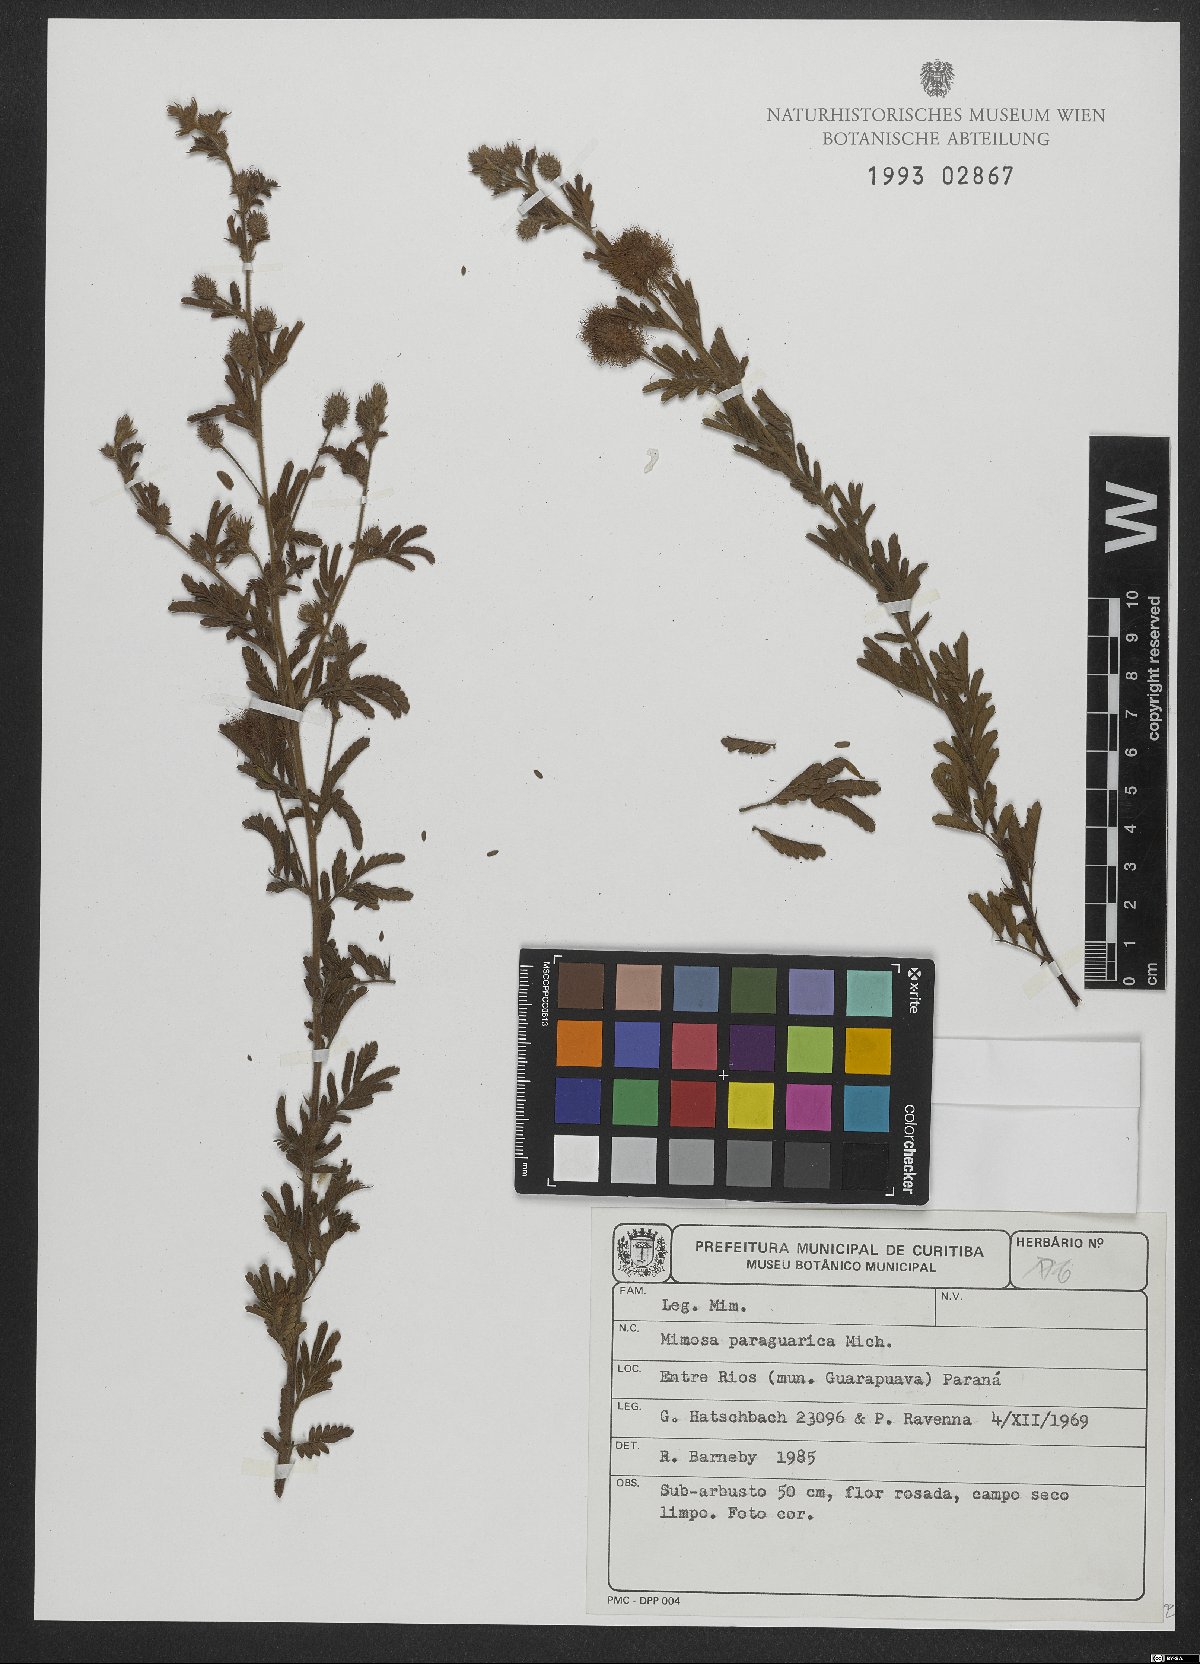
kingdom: Plantae
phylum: Tracheophyta
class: Magnoliopsida
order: Fabales
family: Fabaceae
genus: Mimosa
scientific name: Mimosa paraguariae
